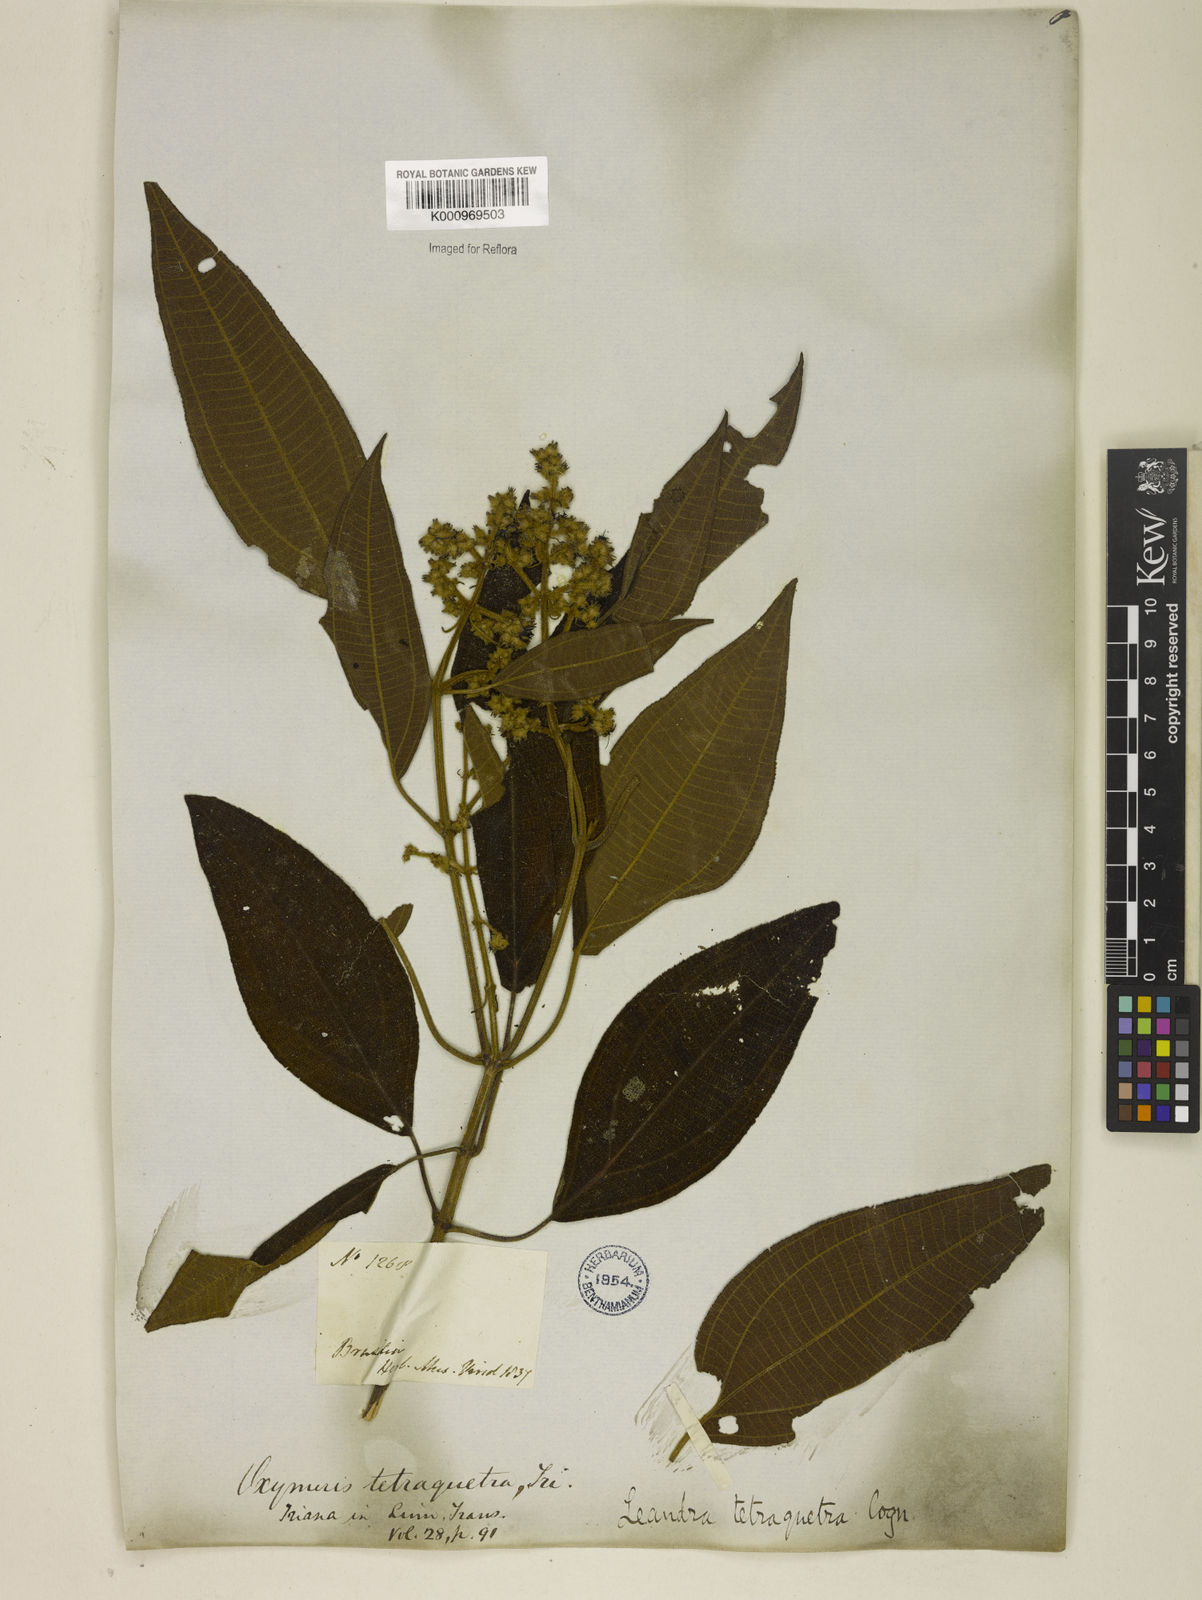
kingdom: Plantae
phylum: Tracheophyta
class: Magnoliopsida
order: Myrtales
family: Melastomataceae
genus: Miconia
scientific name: Miconia tetraquetra
